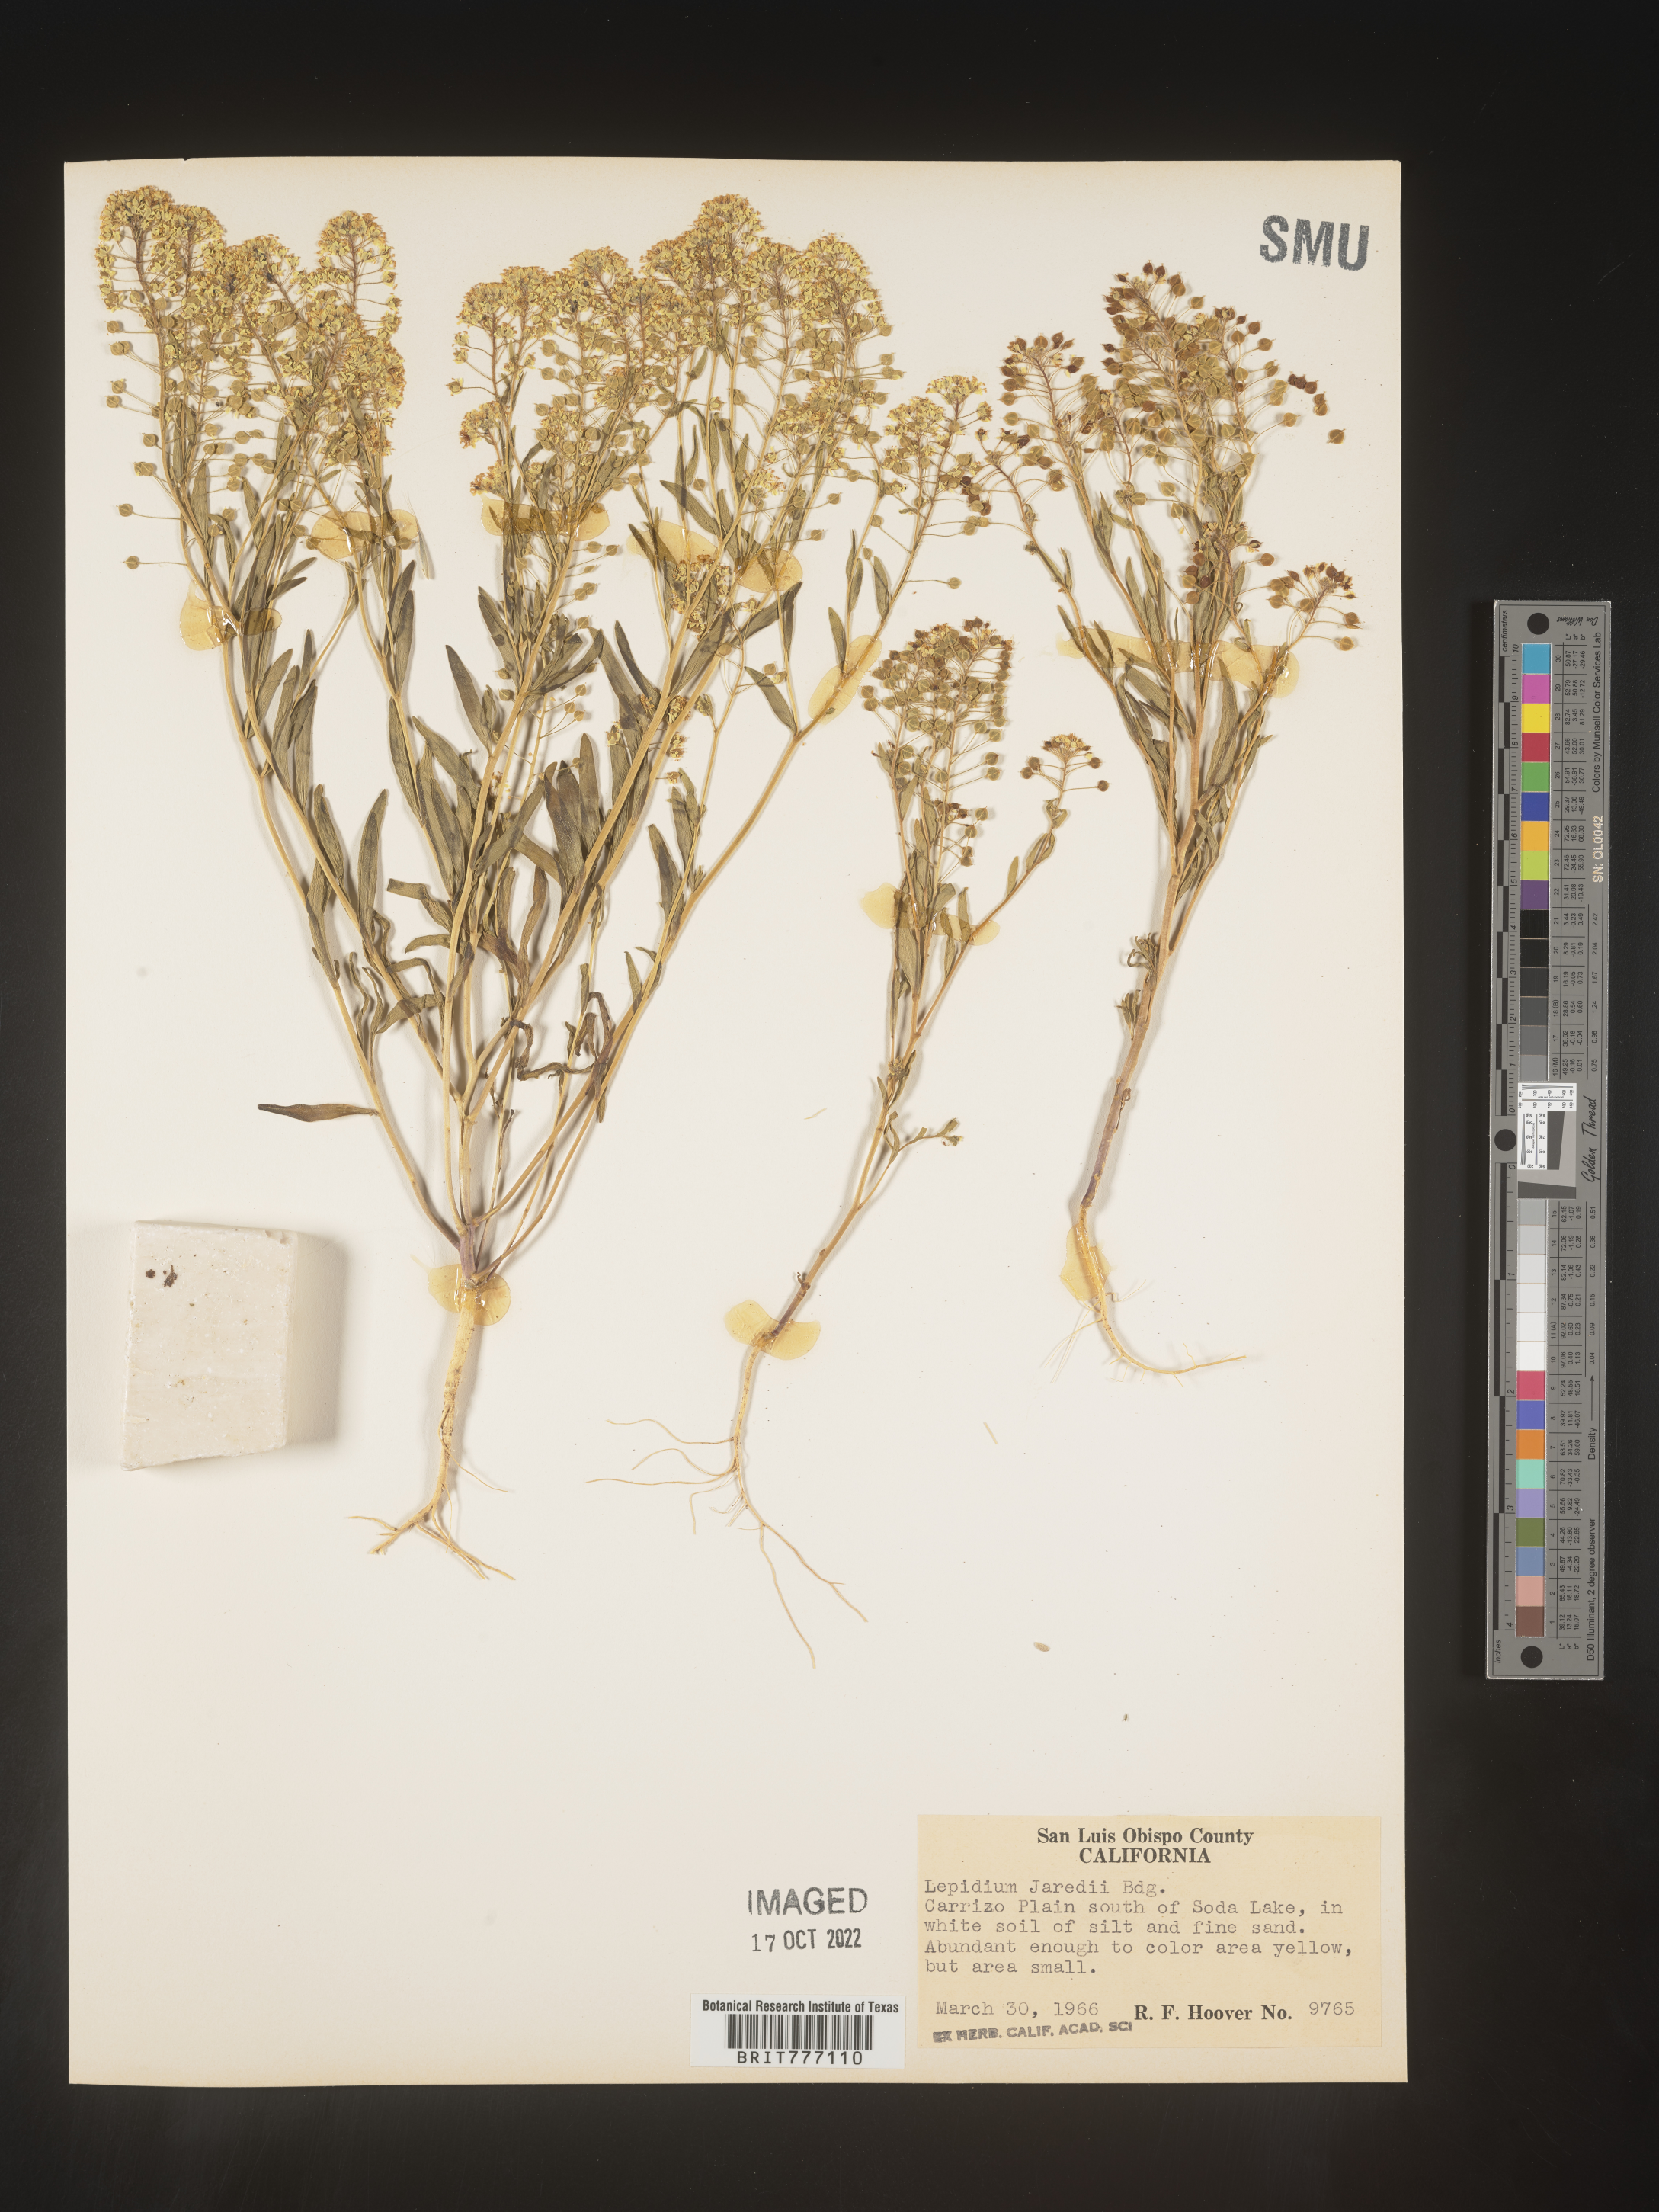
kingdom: Plantae
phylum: Tracheophyta
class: Magnoliopsida
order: Brassicales
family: Brassicaceae
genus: Lepidium
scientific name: Lepidium
